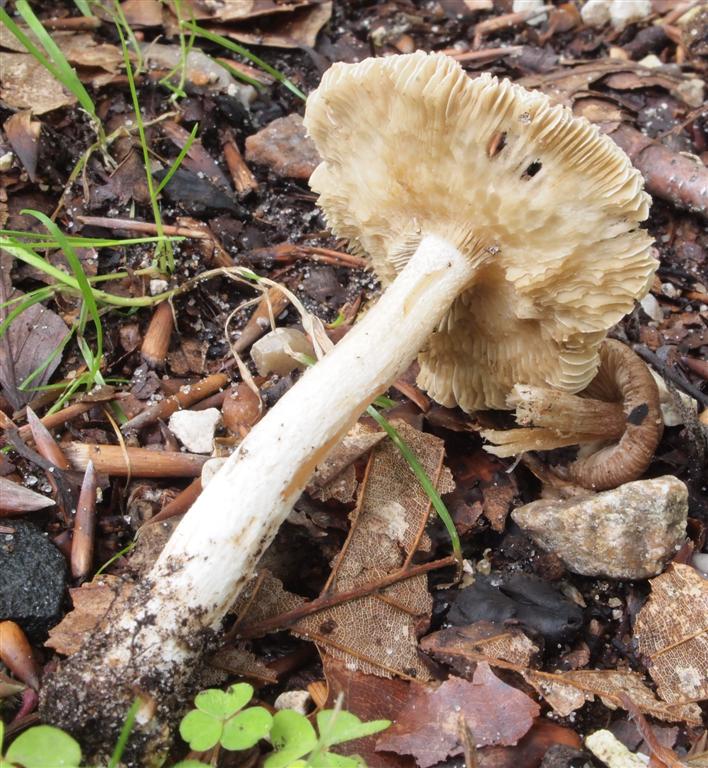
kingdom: Fungi
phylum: Basidiomycota
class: Agaricomycetes
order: Agaricales
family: Inocybaceae
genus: Pseudosperma
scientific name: Pseudosperma perlatum
